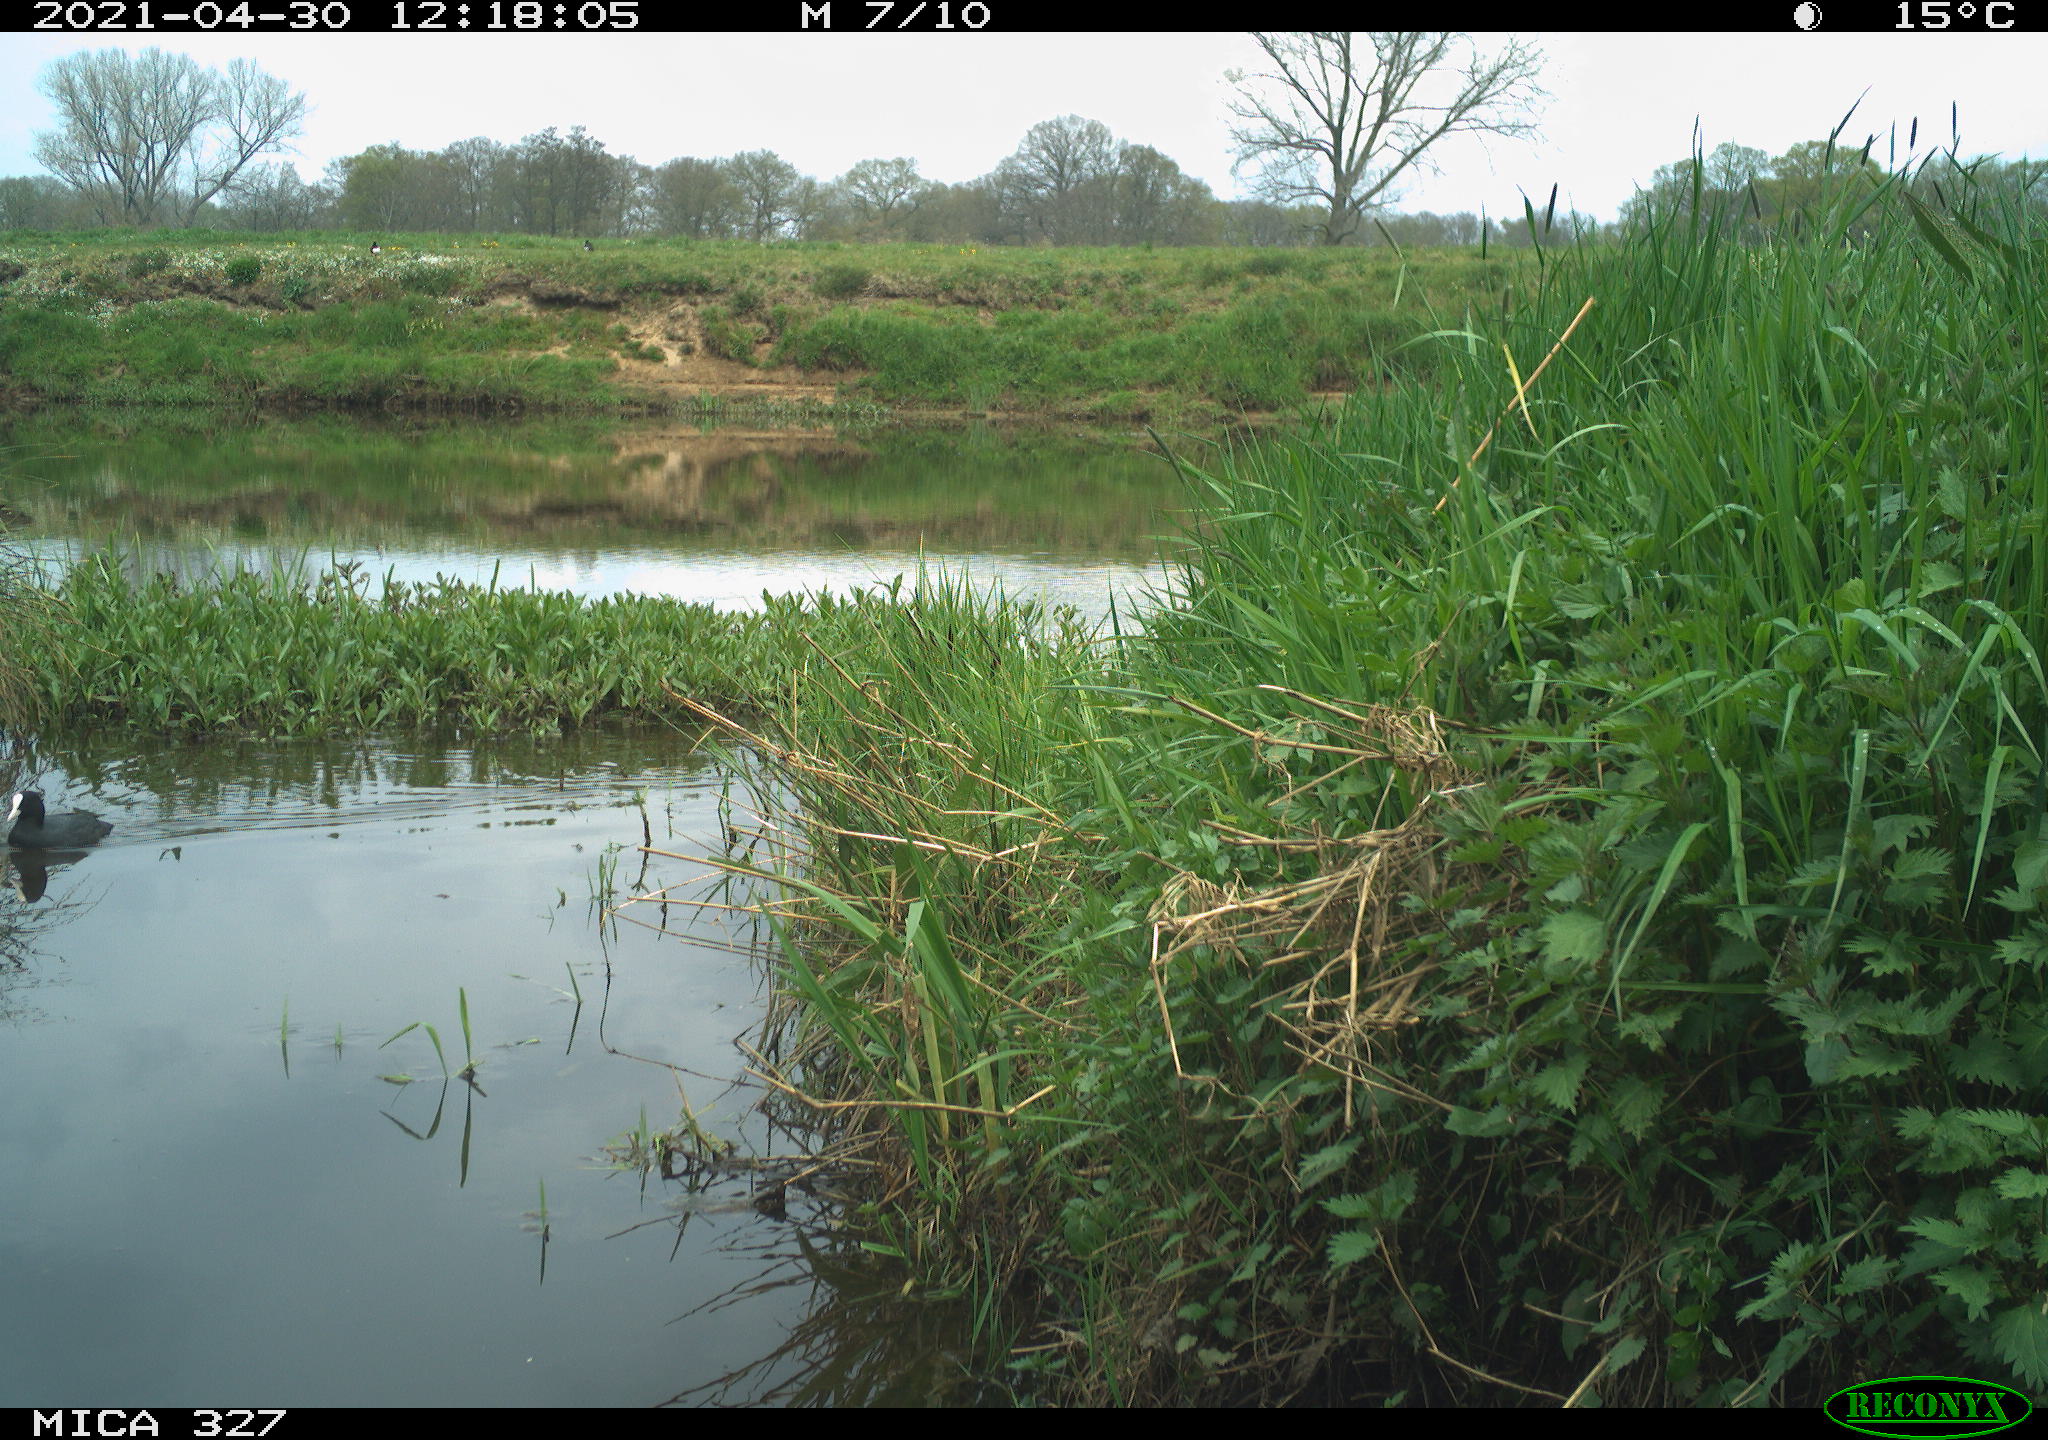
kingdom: Animalia
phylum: Chordata
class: Aves
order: Gruiformes
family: Rallidae
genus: Fulica
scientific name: Fulica atra
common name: Eurasian coot
